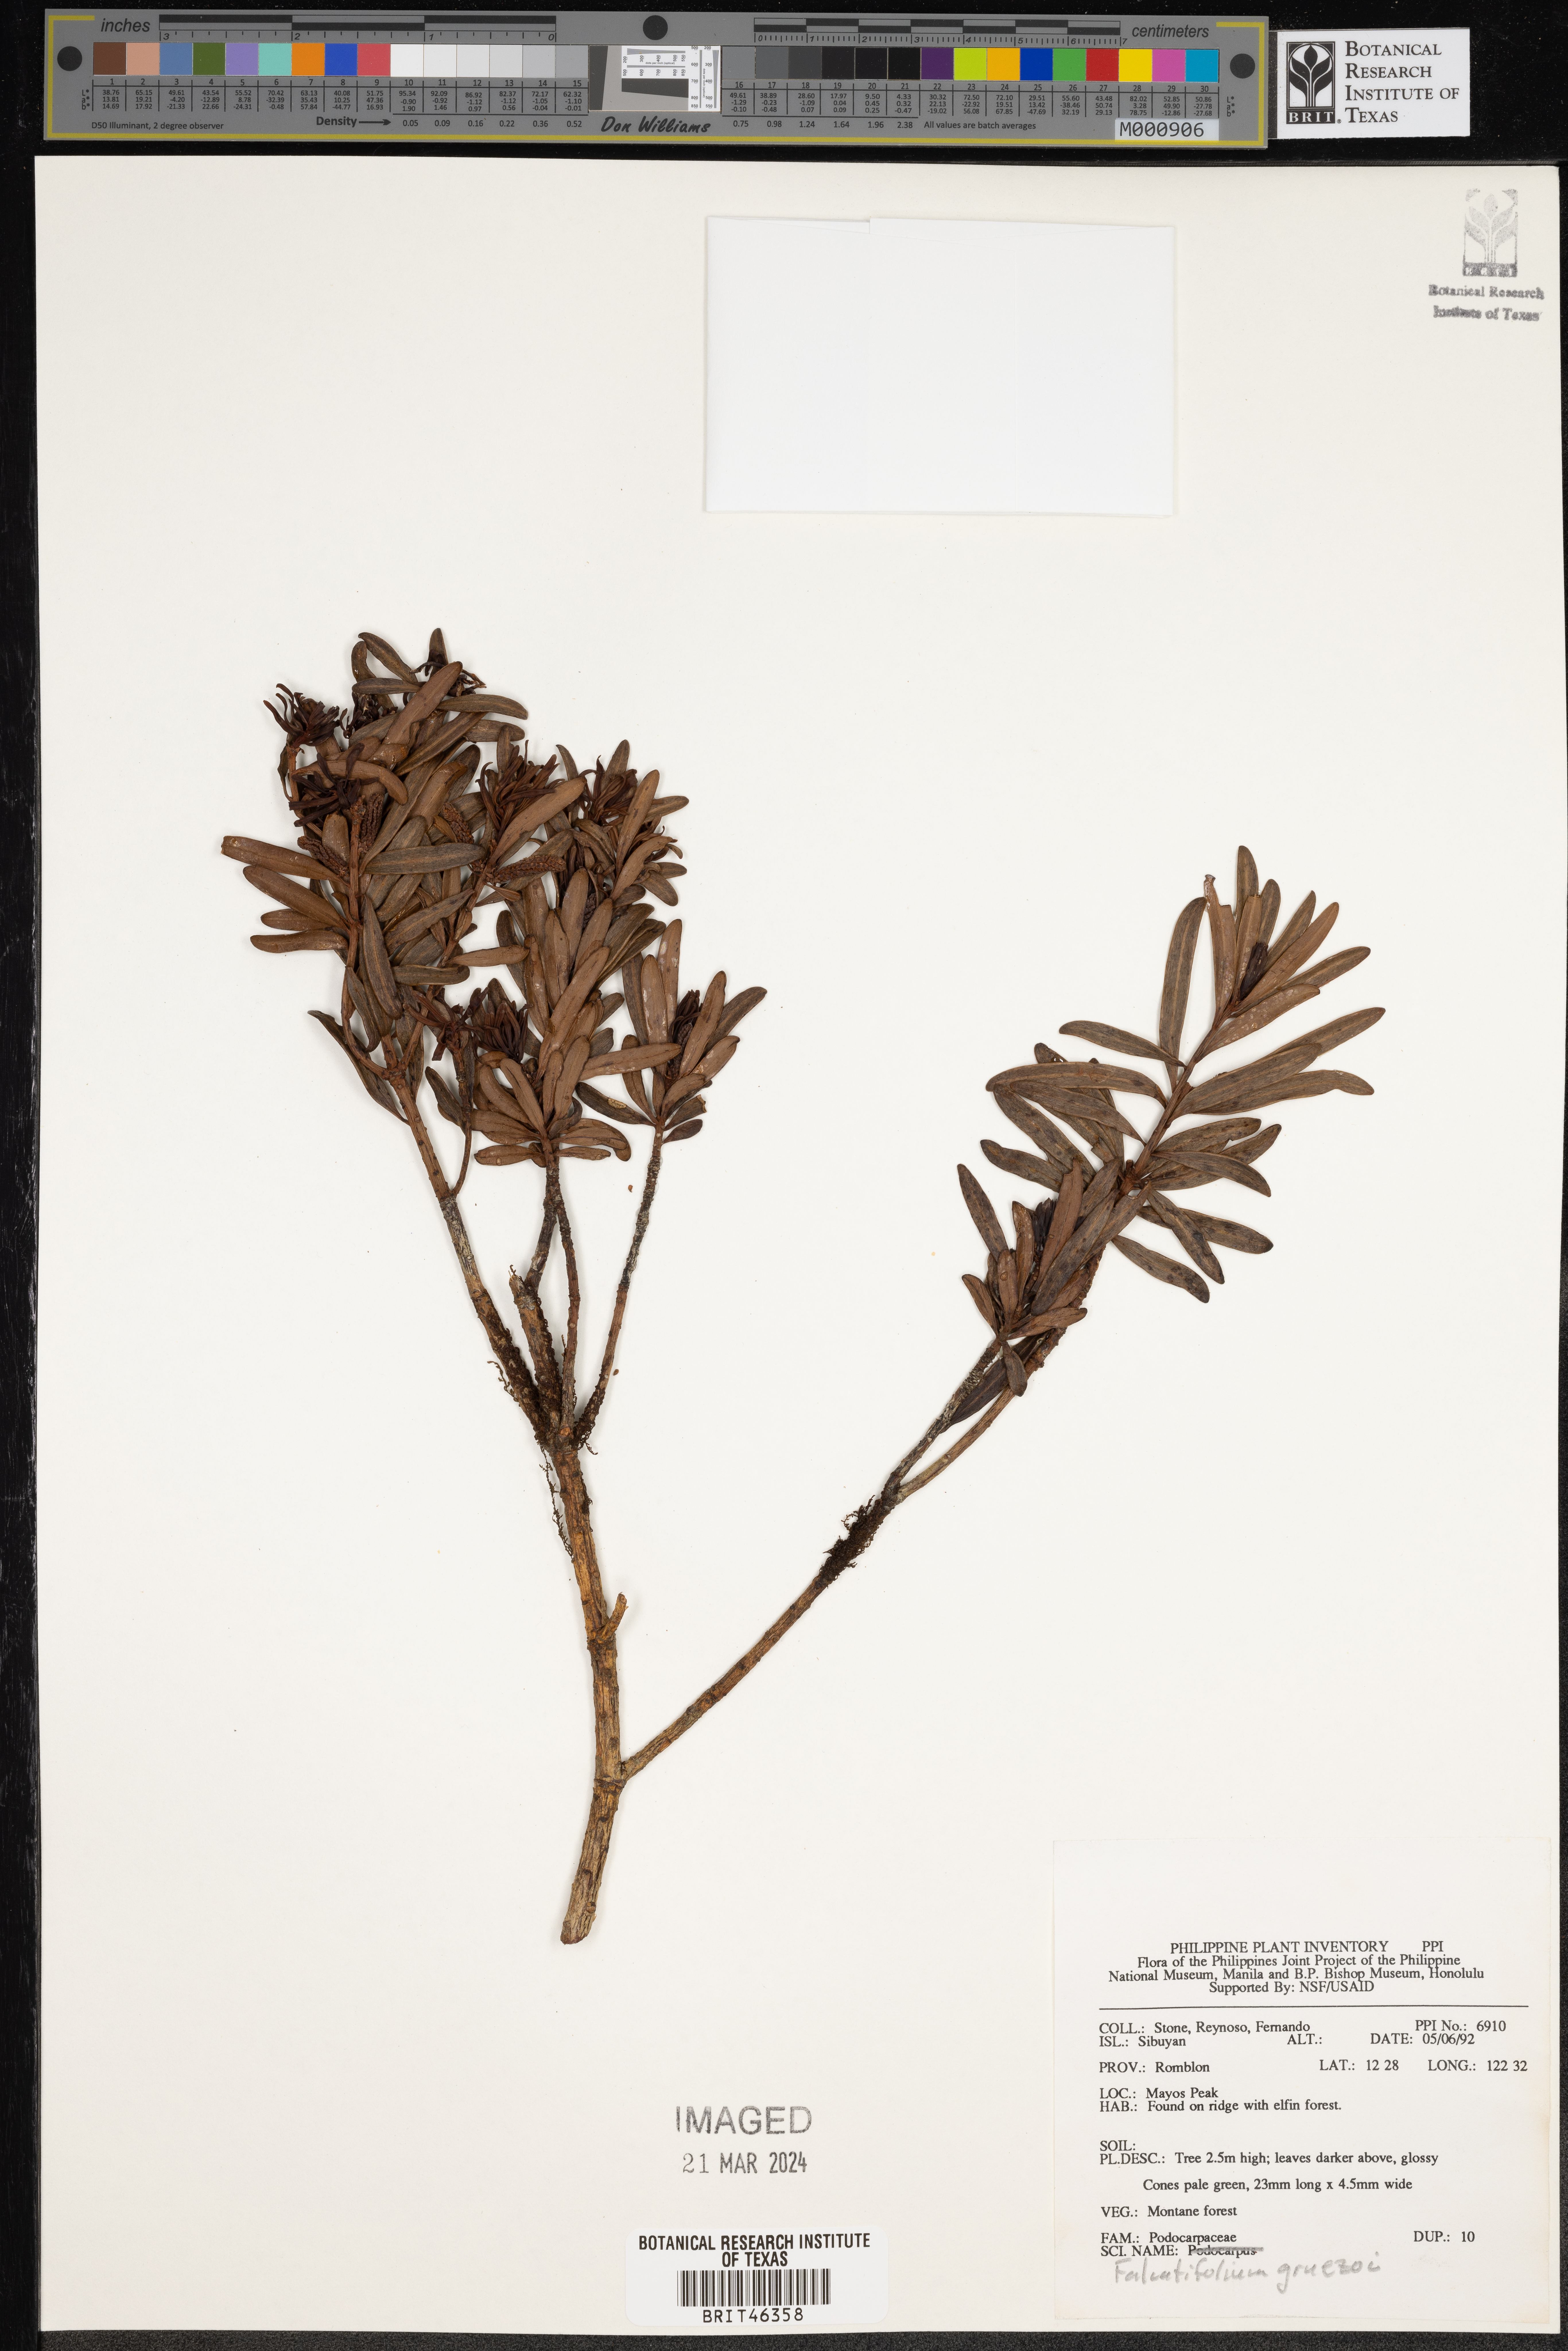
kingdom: Plantae
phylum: Tracheophyta
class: Pinopsida
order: Pinales
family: Podocarpaceae
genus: Falcatifolium
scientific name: Falcatifolium gruezoi
